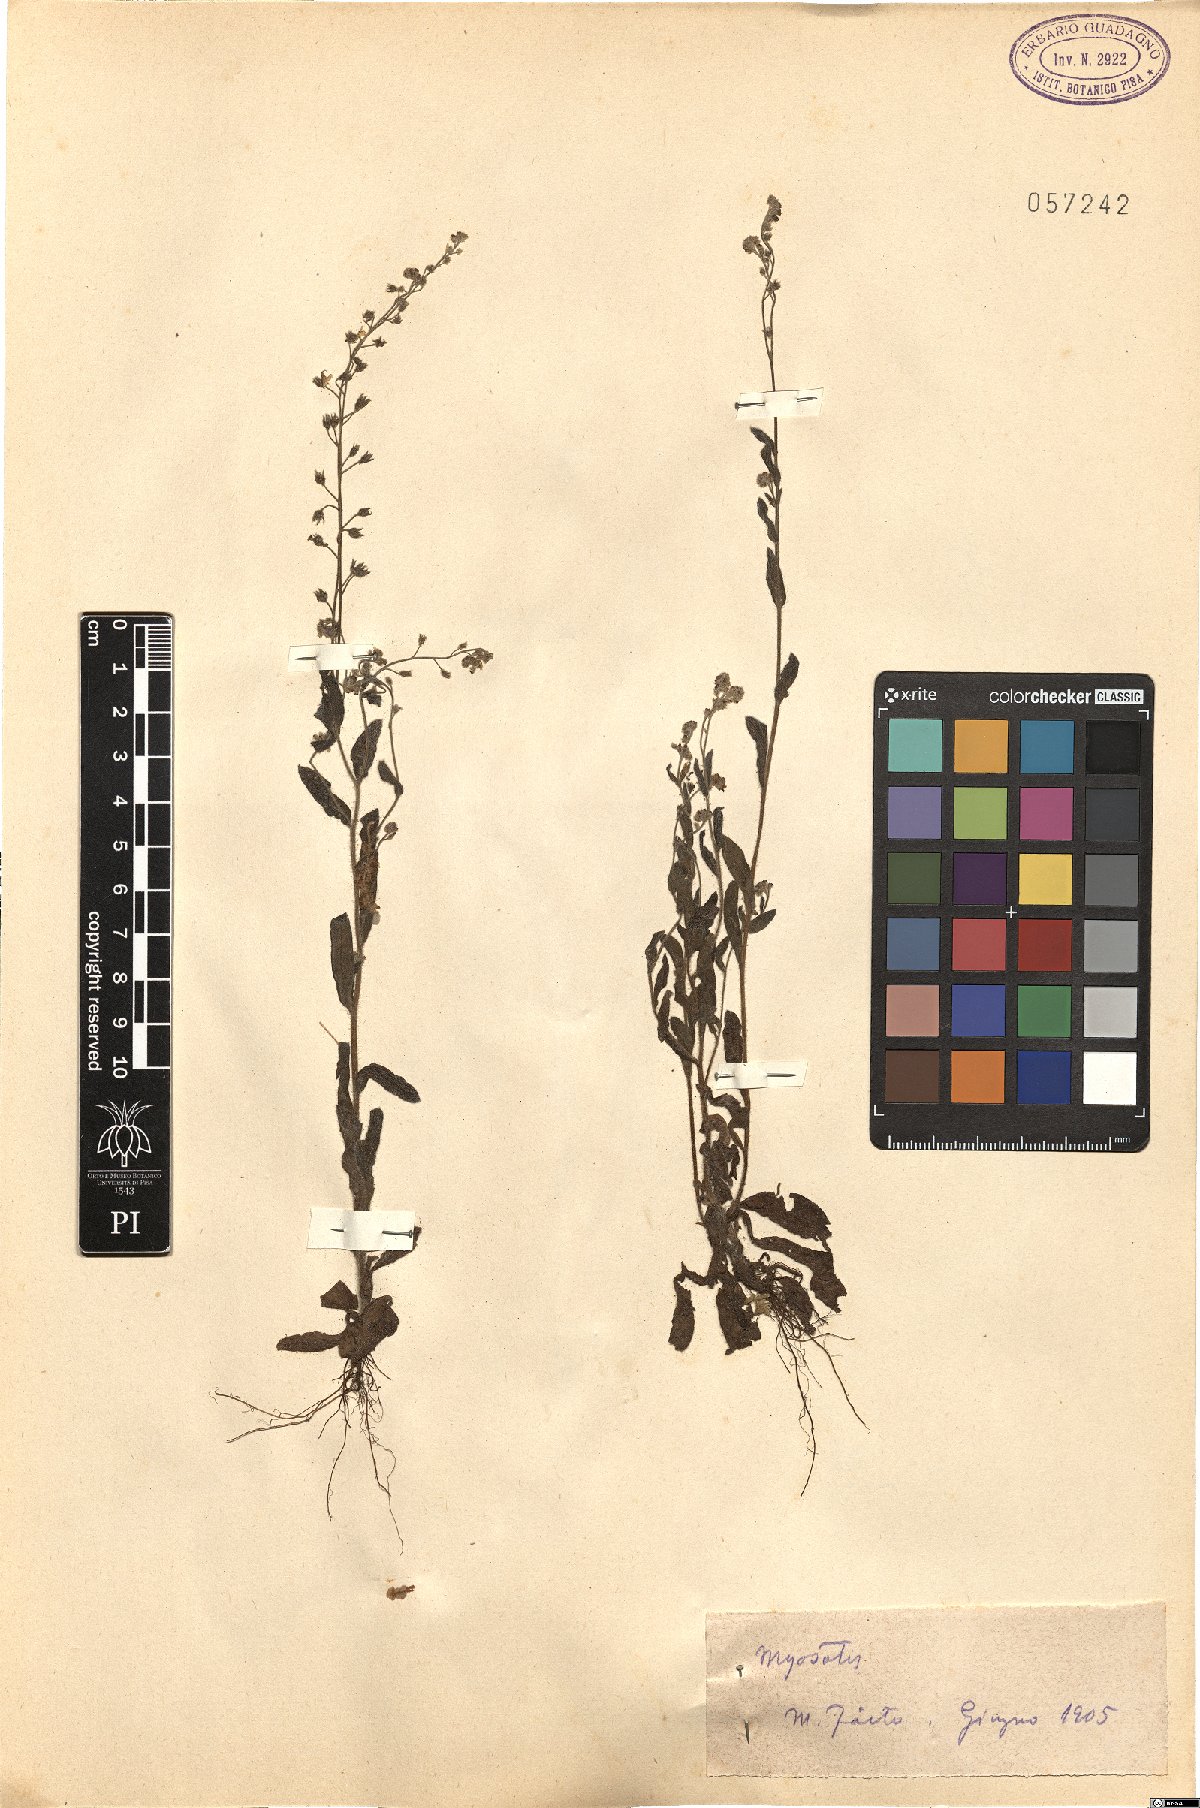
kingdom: Plantae
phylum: Tracheophyta
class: Magnoliopsida
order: Boraginales
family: Boraginaceae
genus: Myosotis
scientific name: Myosotis
